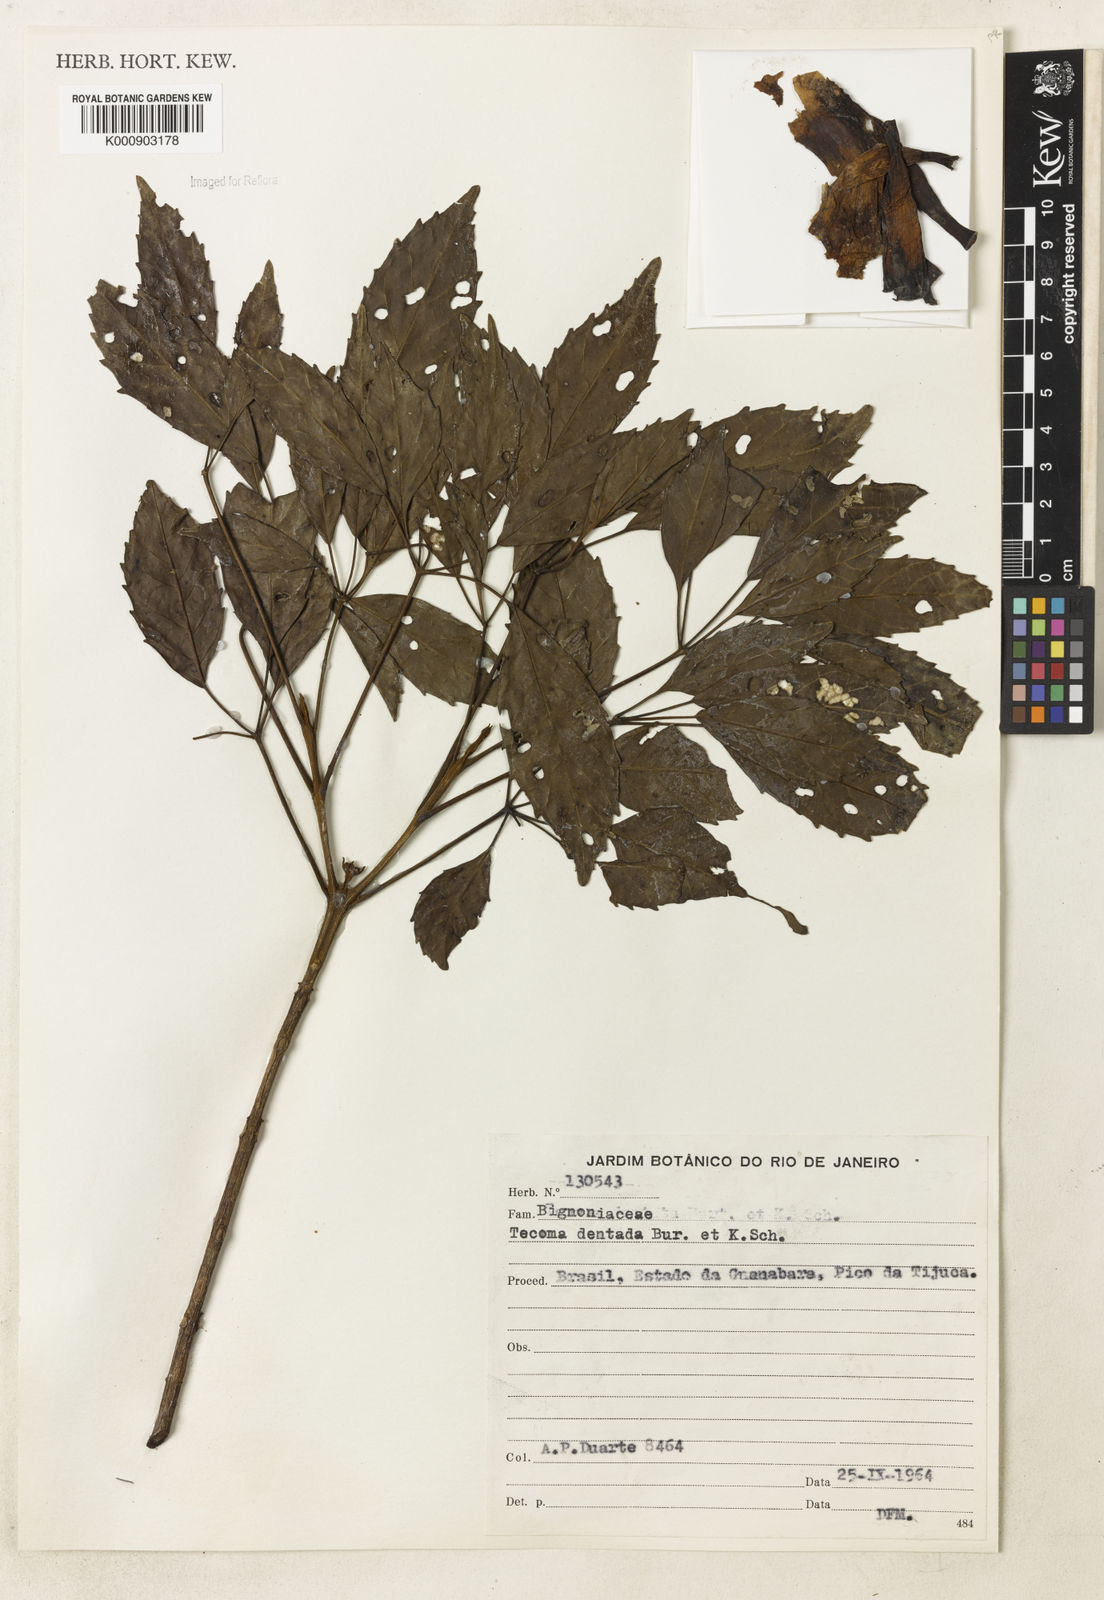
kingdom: Plantae
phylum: Tracheophyta
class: Magnoliopsida
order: Lamiales
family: Bignoniaceae
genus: Handroanthus
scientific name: Handroanthus bureavii
